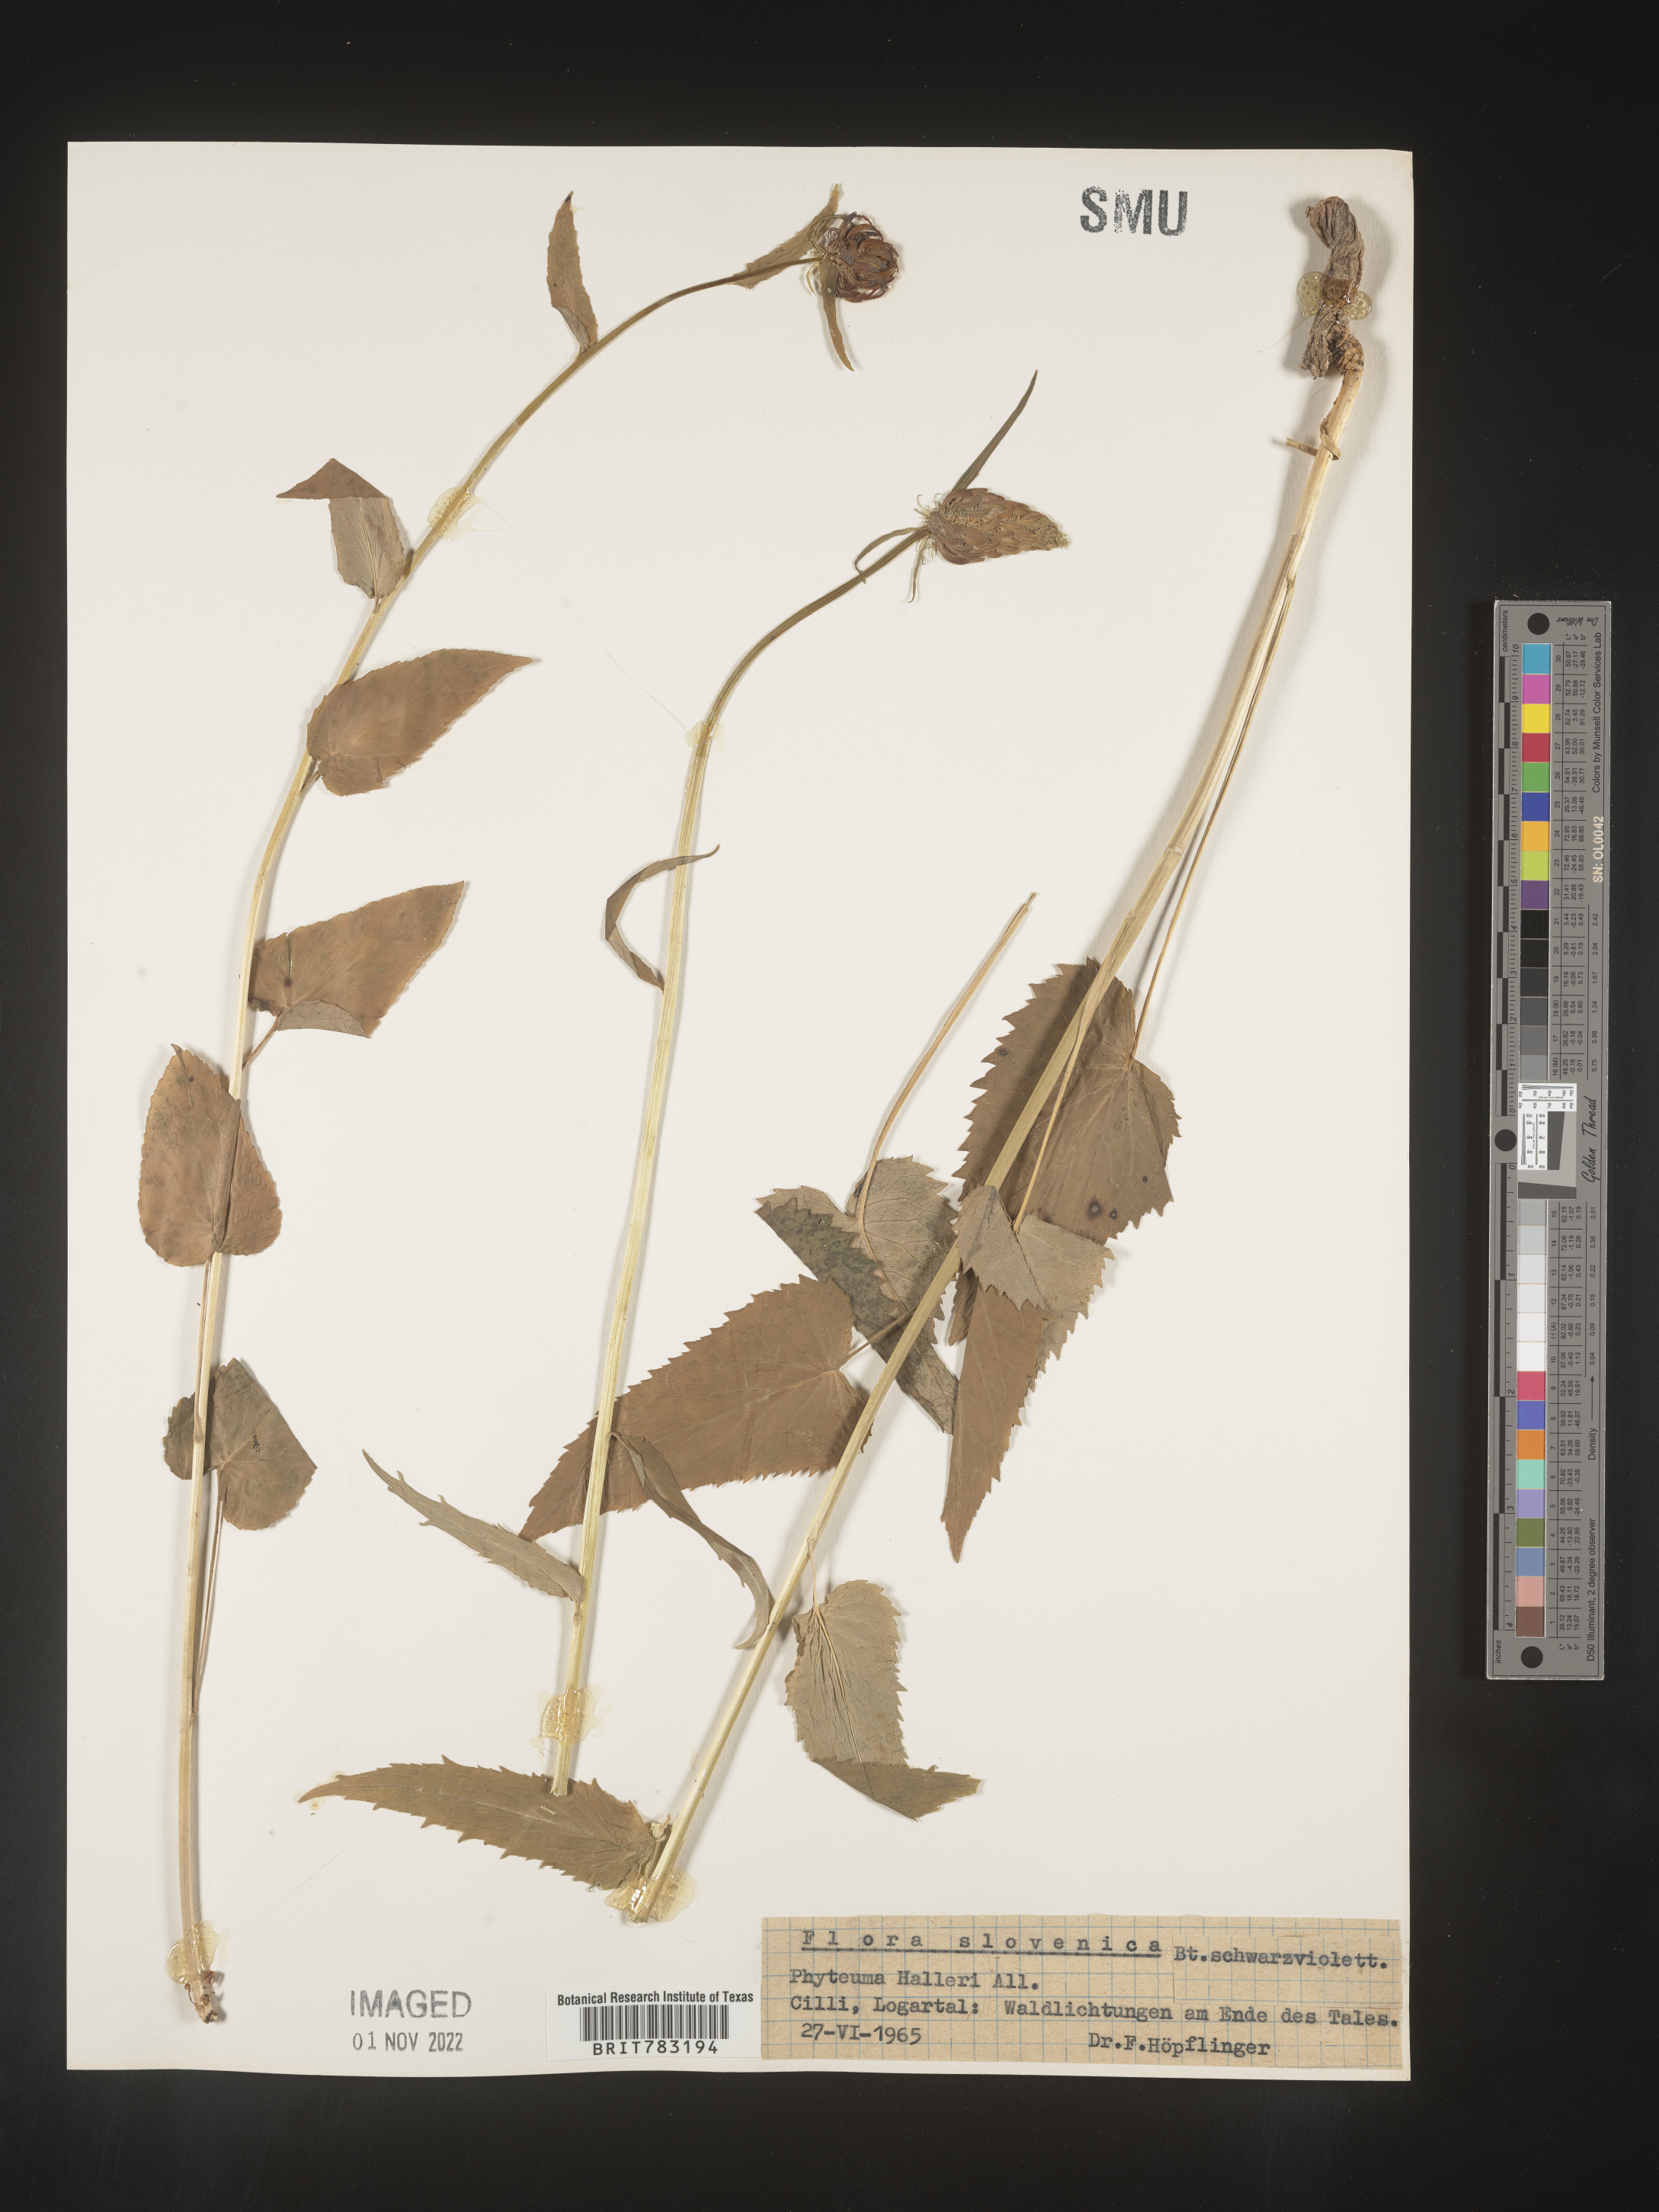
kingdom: Plantae
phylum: Tracheophyta
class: Magnoliopsida
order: Asterales
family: Campanulaceae
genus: Phyteuma
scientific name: Phyteuma
